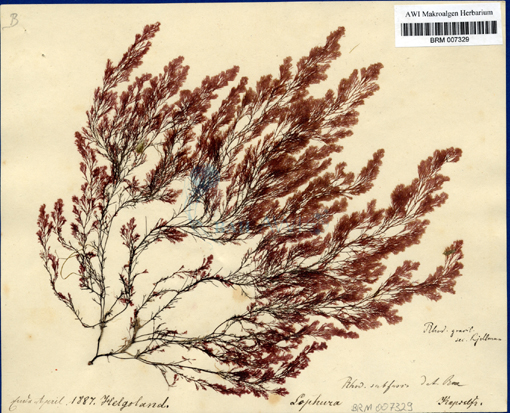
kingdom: Plantae
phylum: Rhodophyta
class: Florideophyceae
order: Ceramiales
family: Rhodomelaceae
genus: Lophura
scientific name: Lophura
